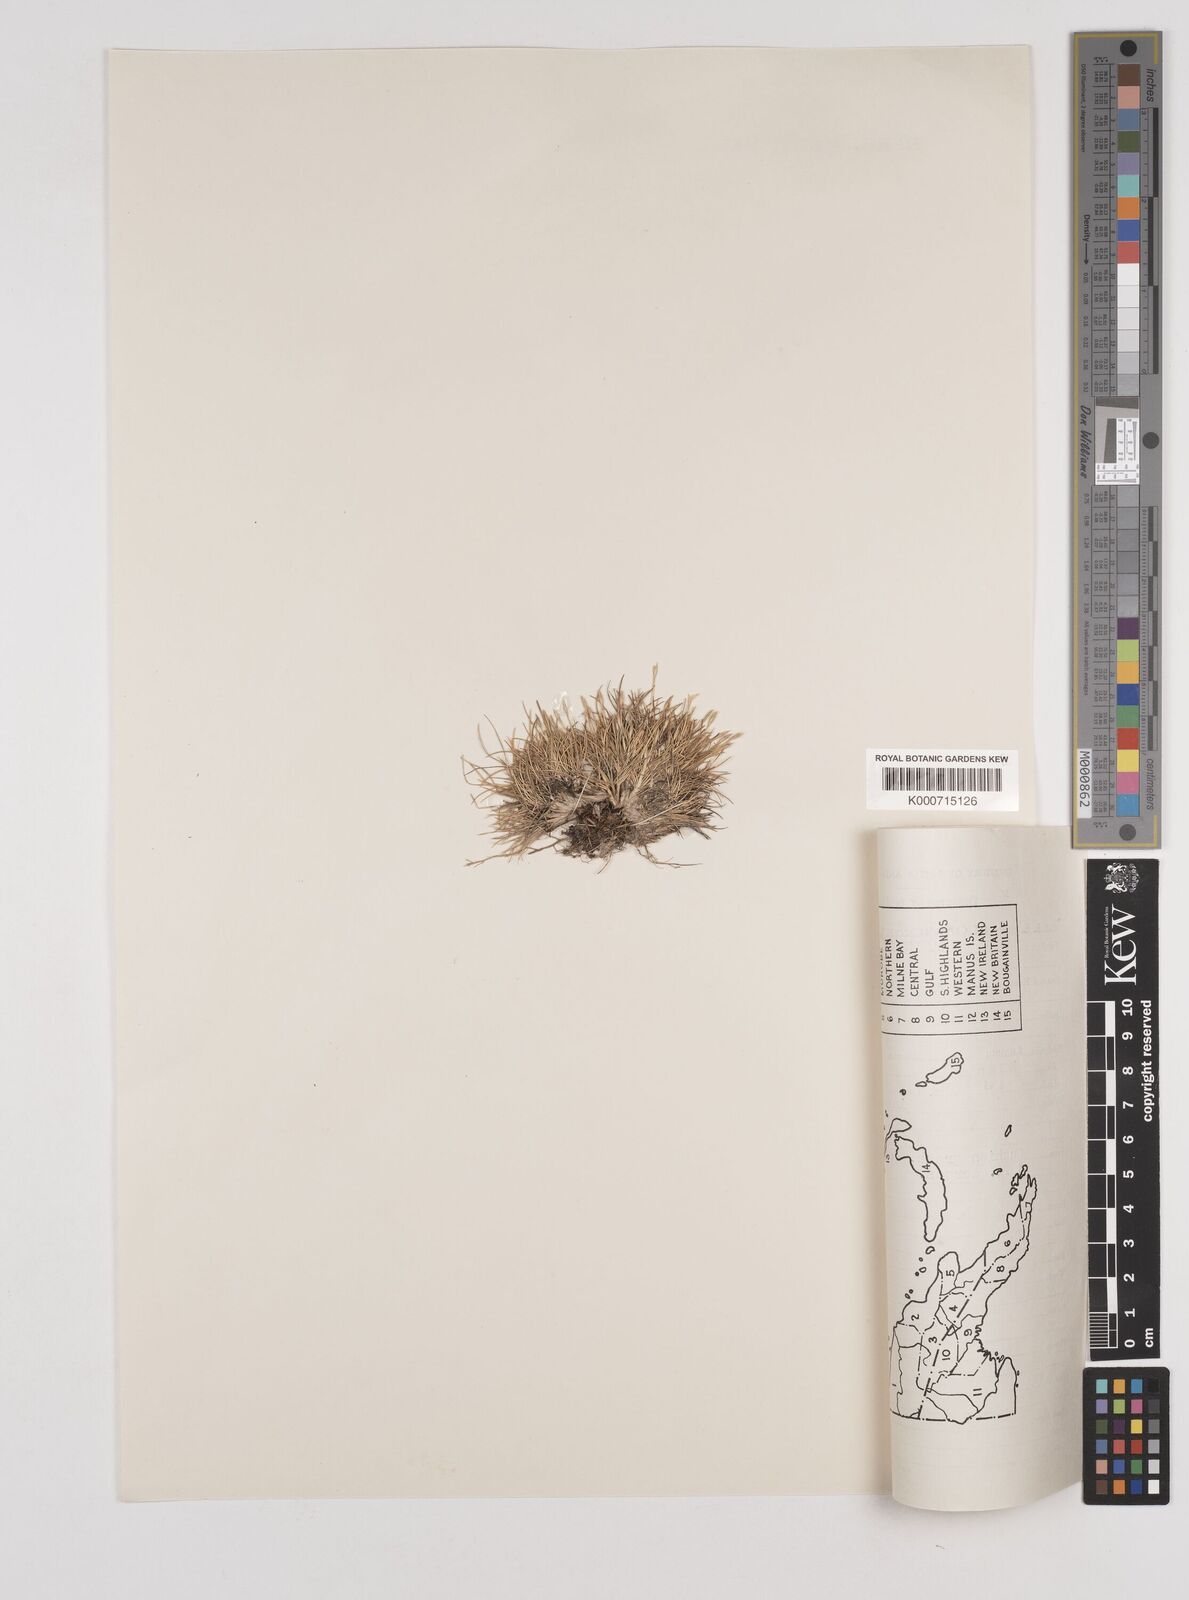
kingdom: Plantae
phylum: Tracheophyta
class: Liliopsida
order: Poales
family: Poaceae
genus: Rytidosperma
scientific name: Rytidosperma oreoboloides
